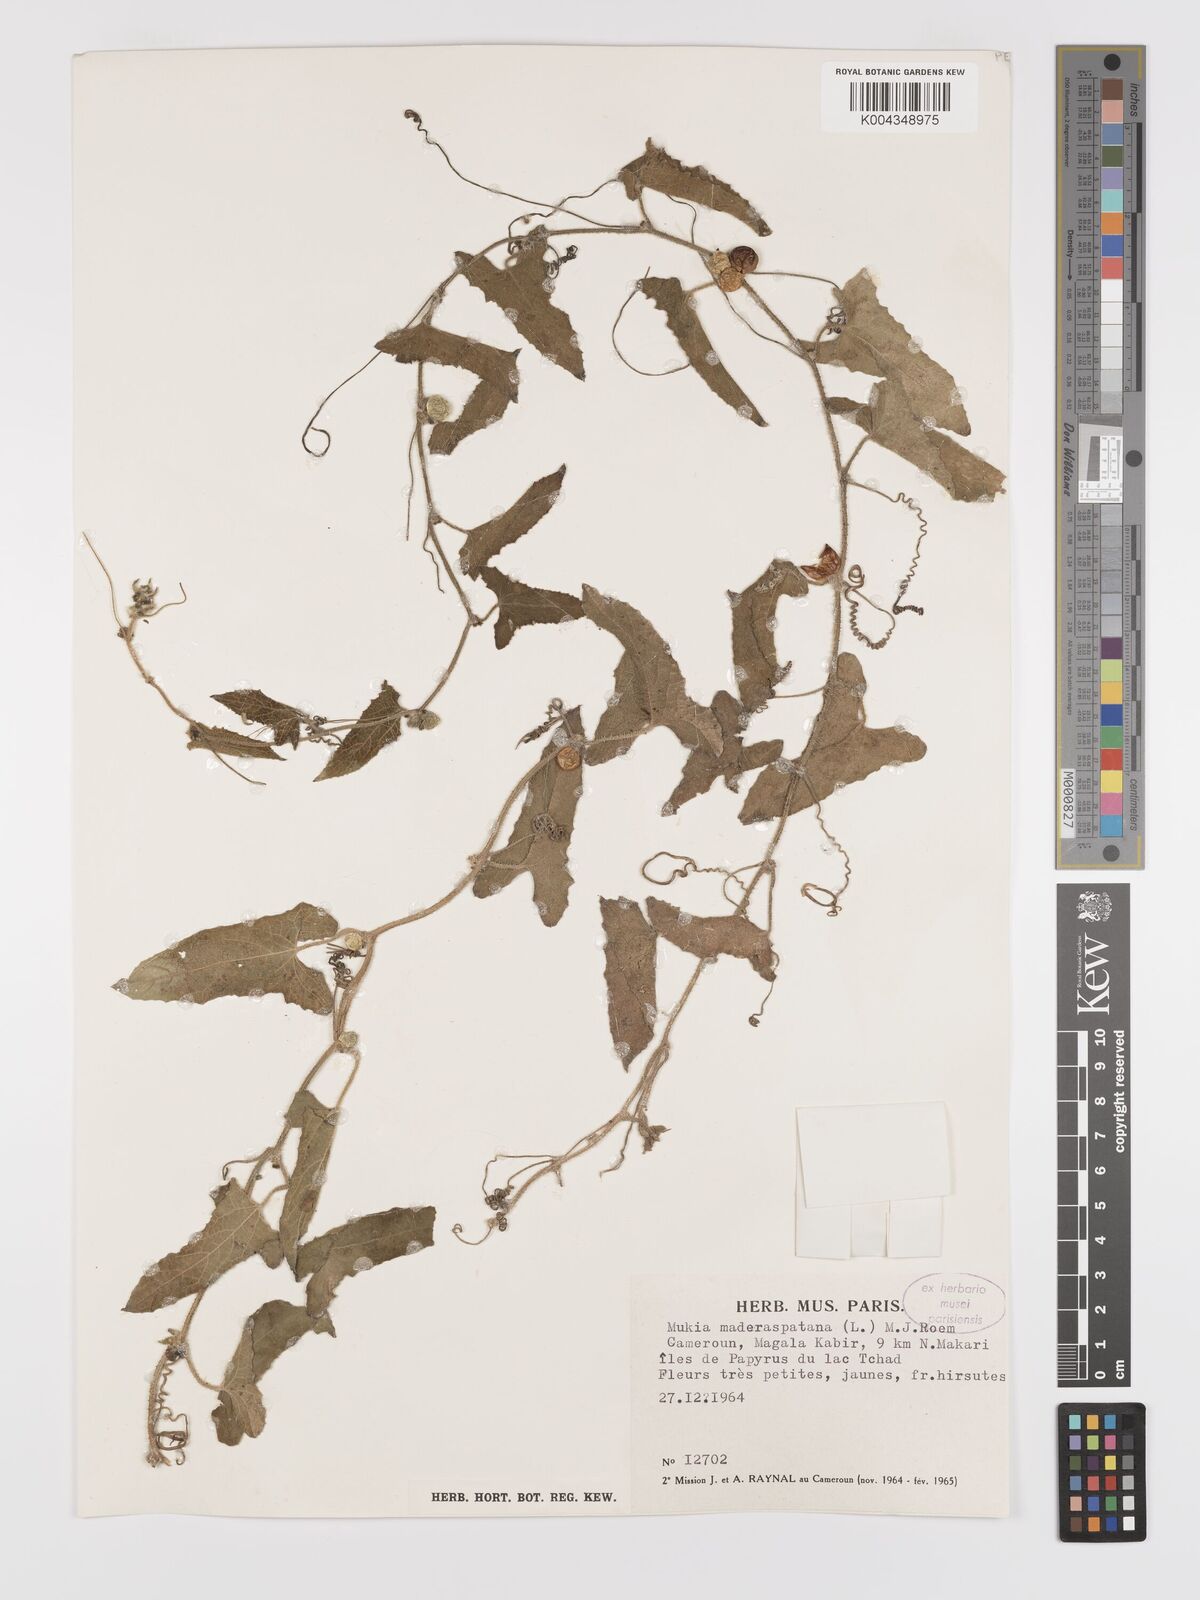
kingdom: Plantae
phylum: Tracheophyta
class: Magnoliopsida
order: Cucurbitales
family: Cucurbitaceae
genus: Cucumis
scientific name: Cucumis maderaspatanus
